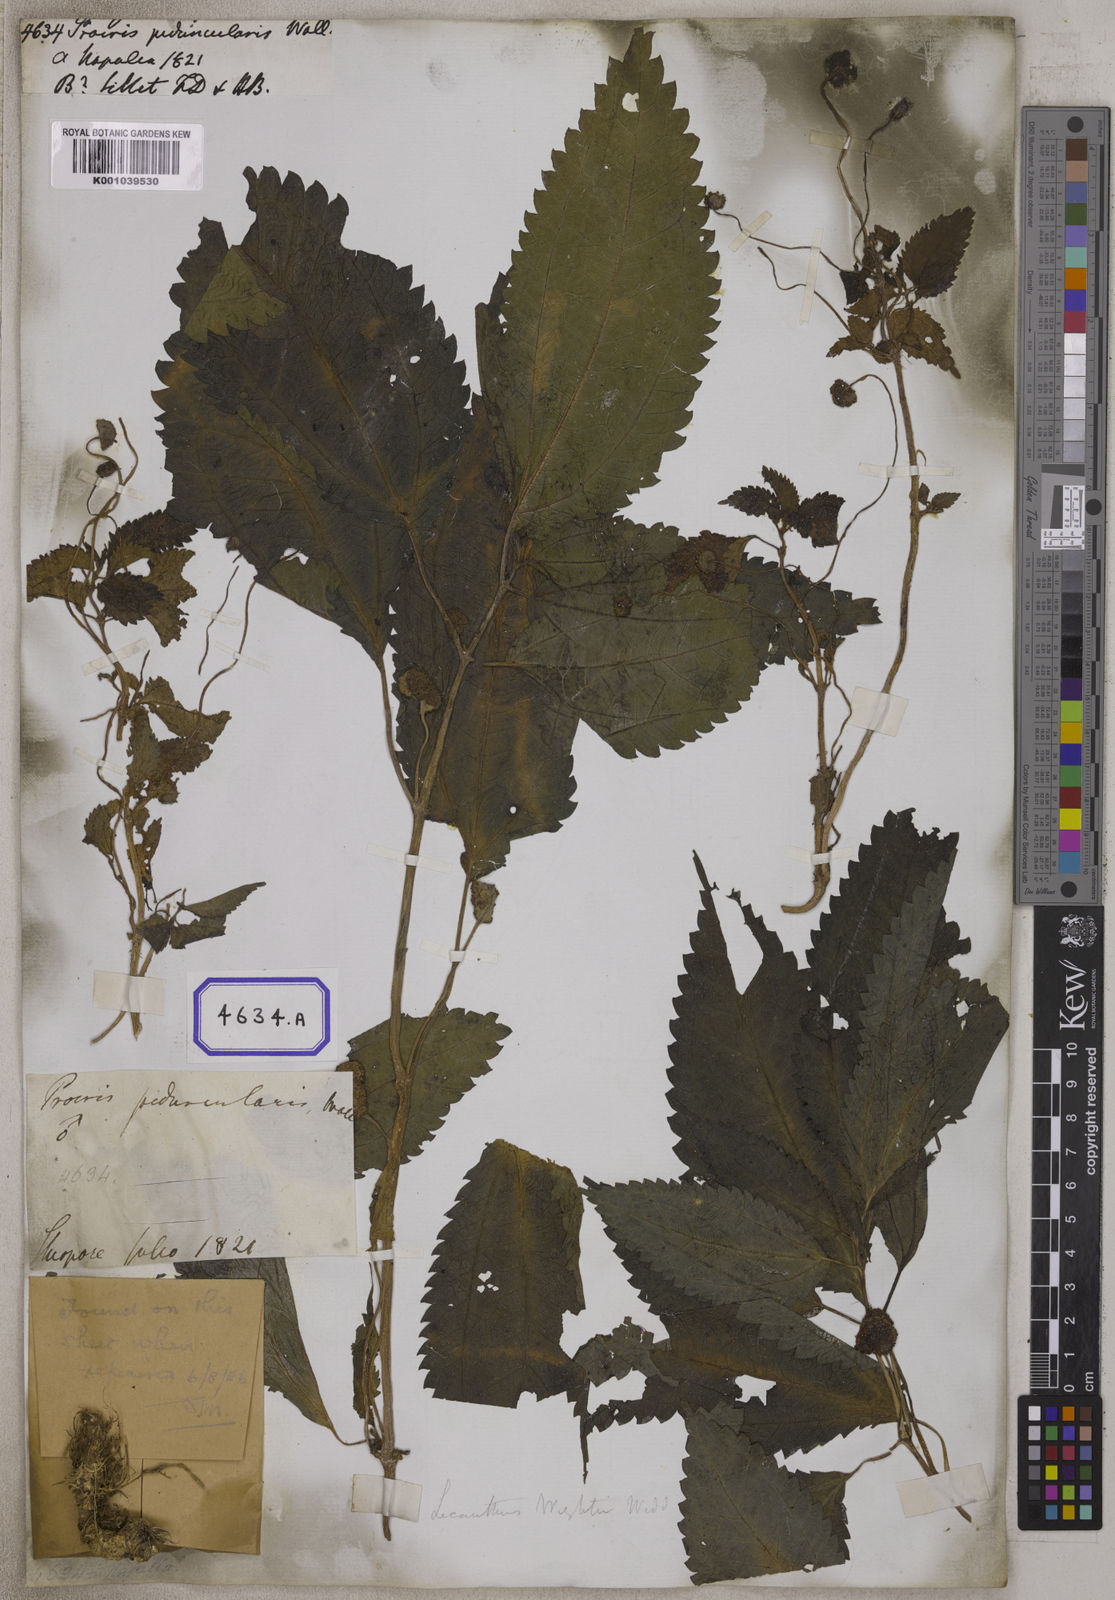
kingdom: Plantae
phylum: Tracheophyta
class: Magnoliopsida
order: Rosales
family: Urticaceae
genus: Procris
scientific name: Procris
